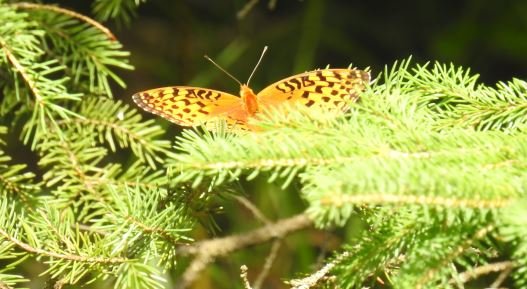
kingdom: Animalia
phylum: Arthropoda
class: Insecta
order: Lepidoptera
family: Nymphalidae
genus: Speyeria
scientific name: Speyeria aphrodite
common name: Aphrodite Fritillary
